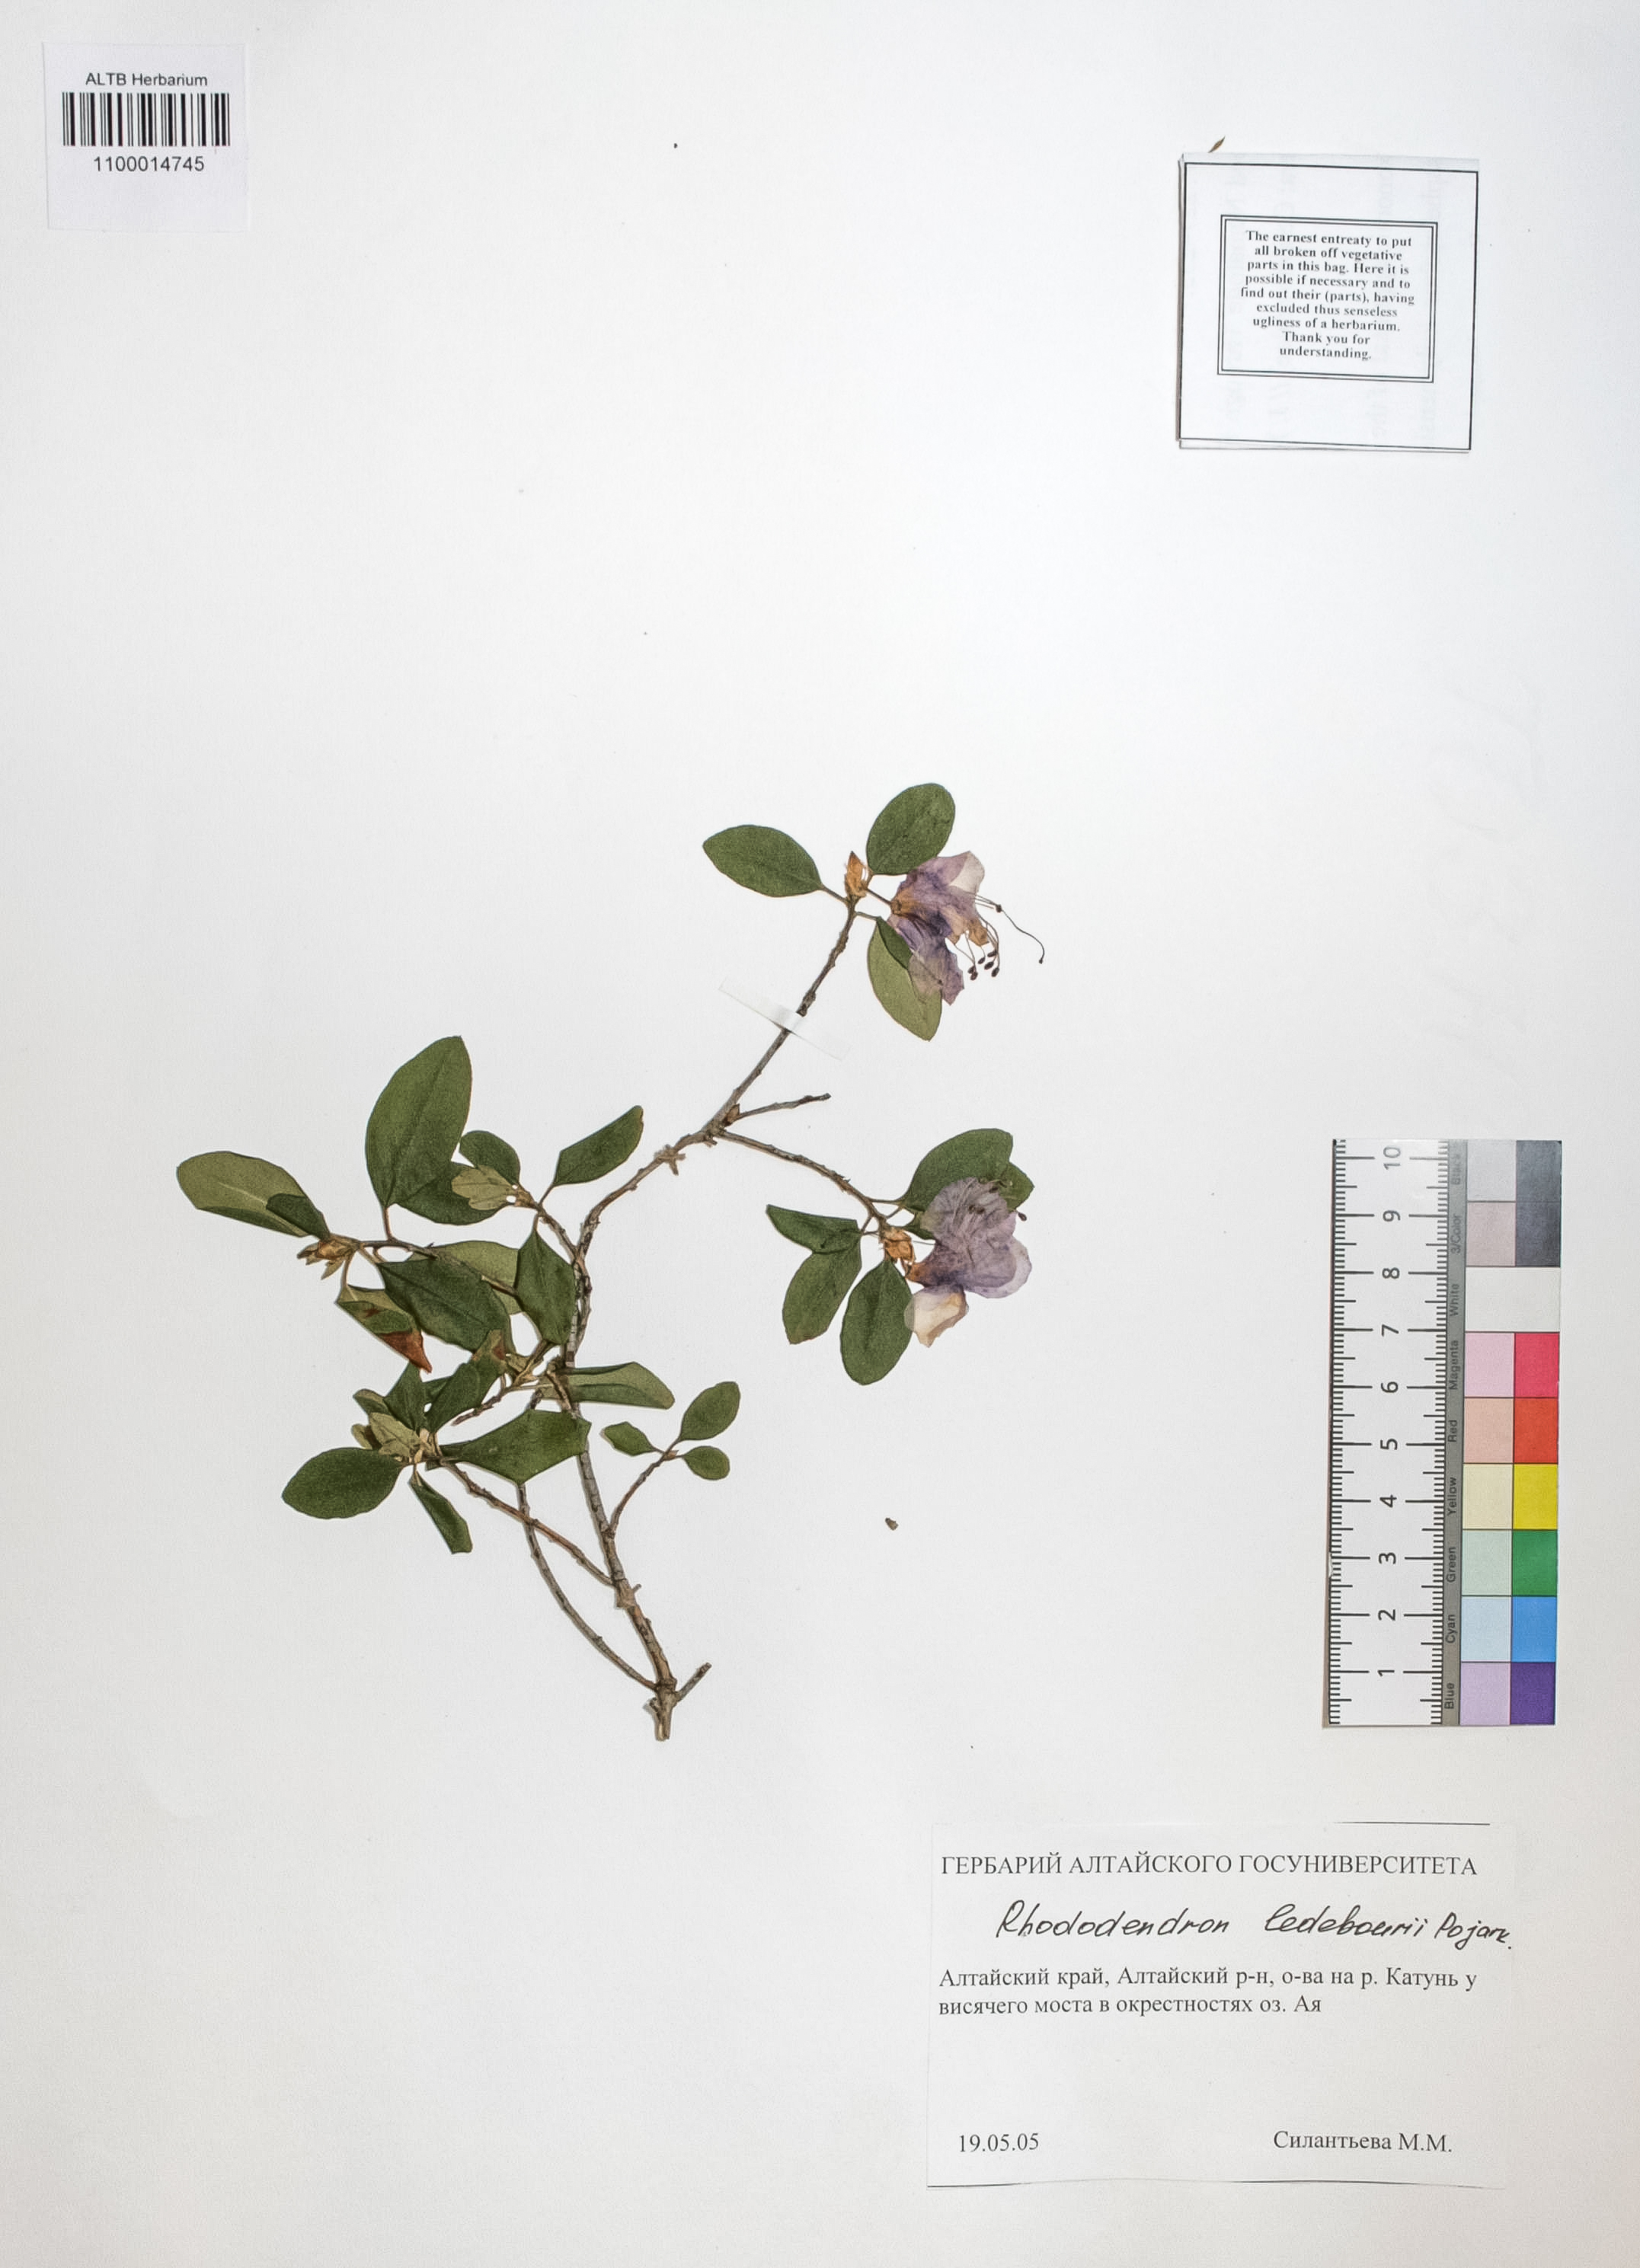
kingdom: Plantae
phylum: Tracheophyta
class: Magnoliopsida
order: Ericales
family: Ericaceae
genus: Rhododendron
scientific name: Rhododendron dauricum
